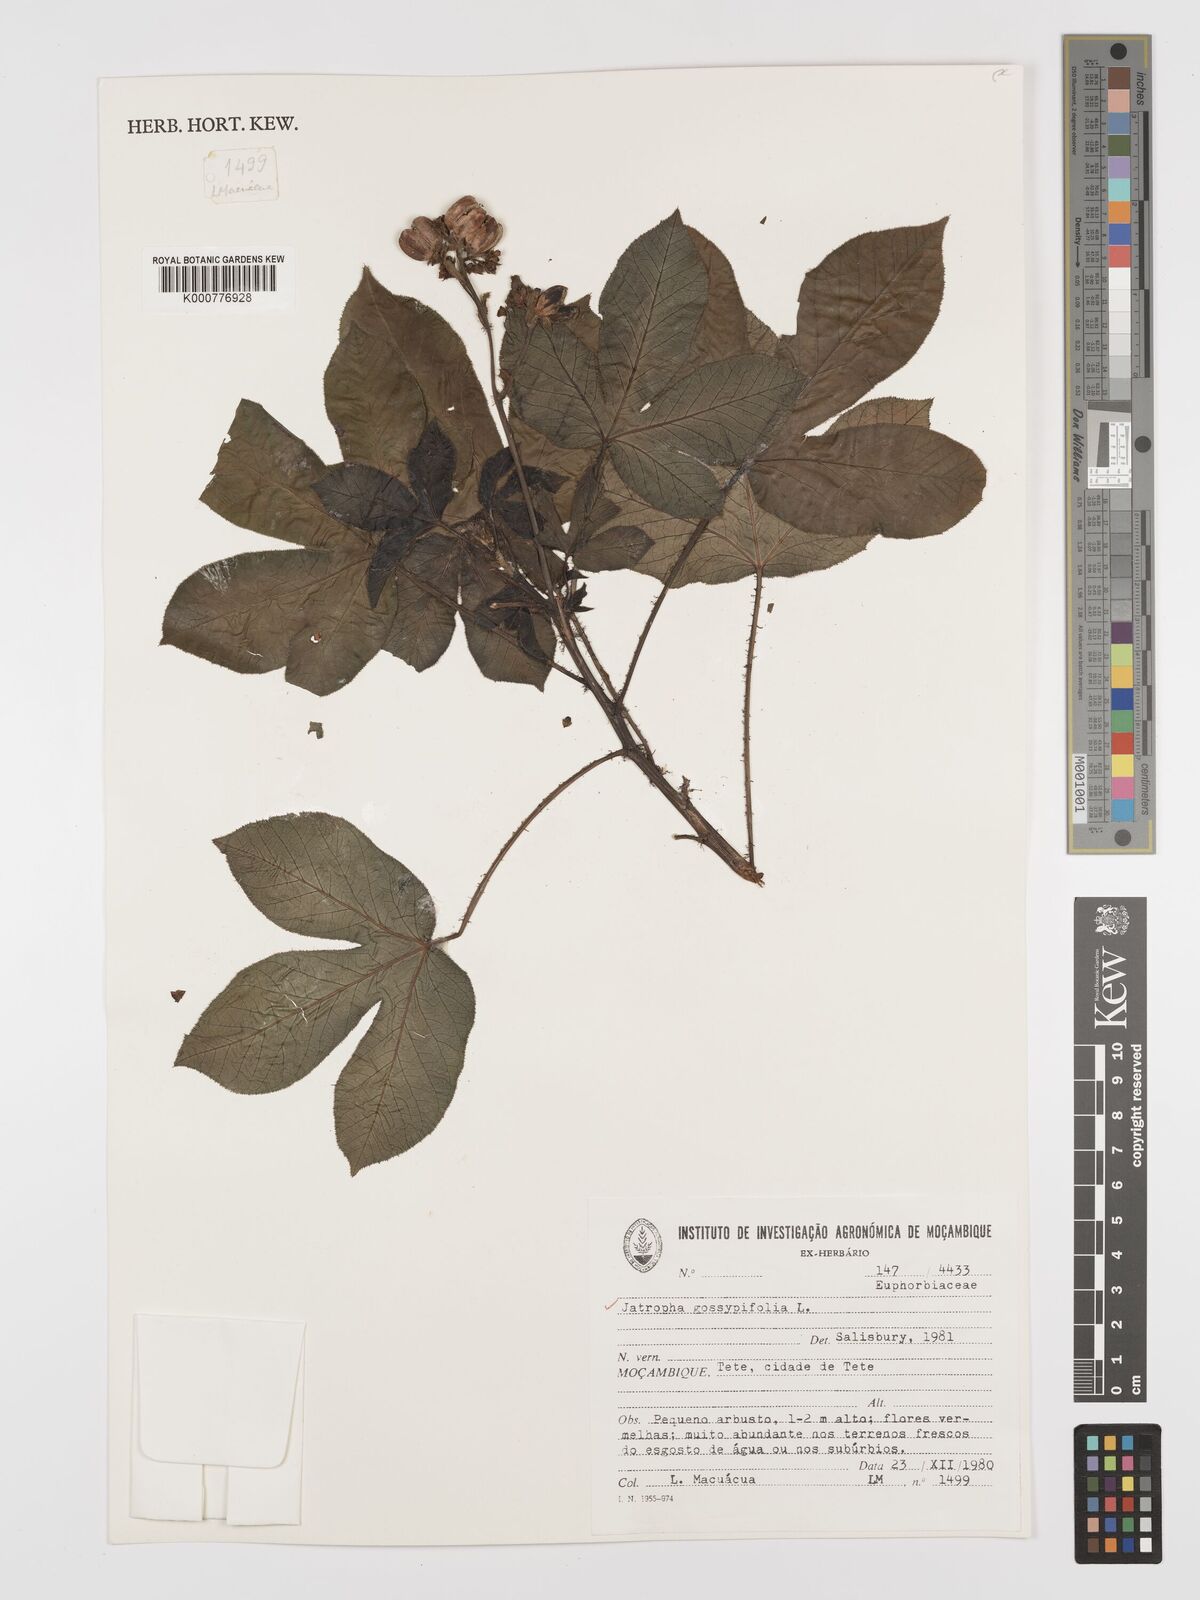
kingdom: Plantae
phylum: Tracheophyta
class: Magnoliopsida
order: Malpighiales
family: Euphorbiaceae
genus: Jatropha
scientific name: Jatropha gossypiifolia
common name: Bellyache bush
